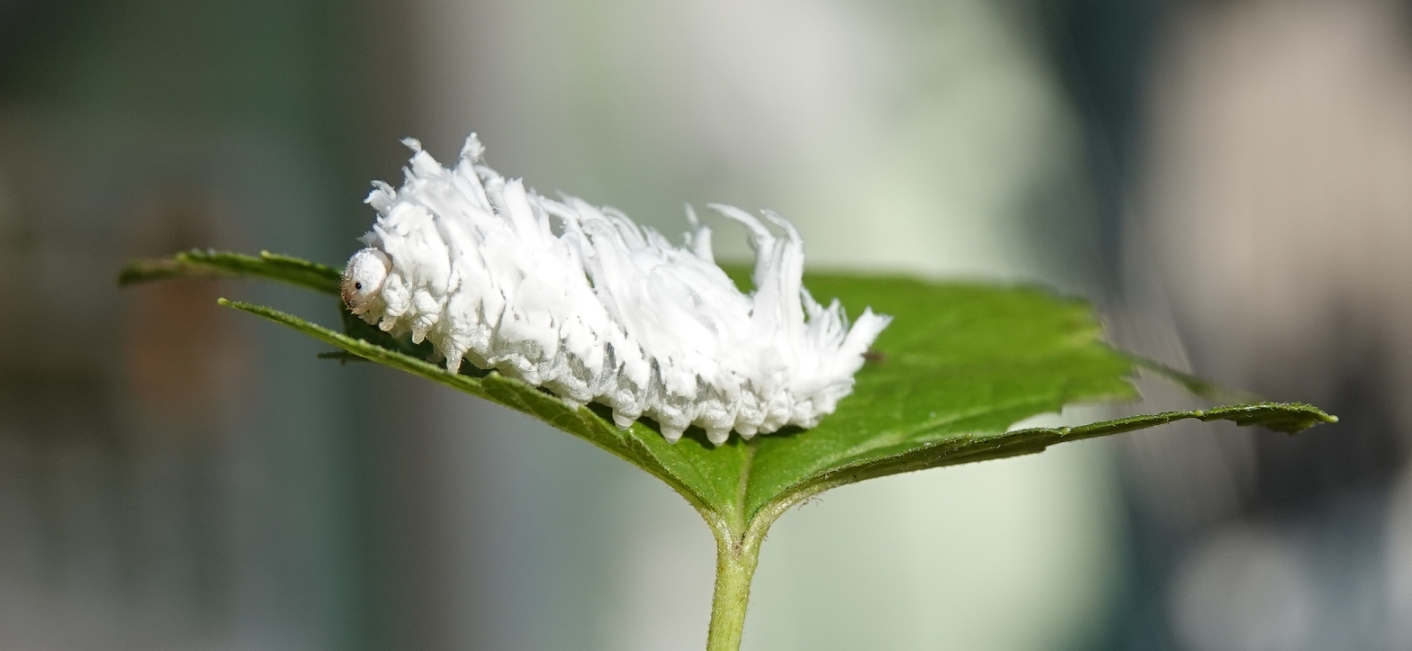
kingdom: Animalia
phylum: Arthropoda
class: Insecta
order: Hymenoptera
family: Tenthredinidae
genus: Eriocampa
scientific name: Eriocampa dorpatica
